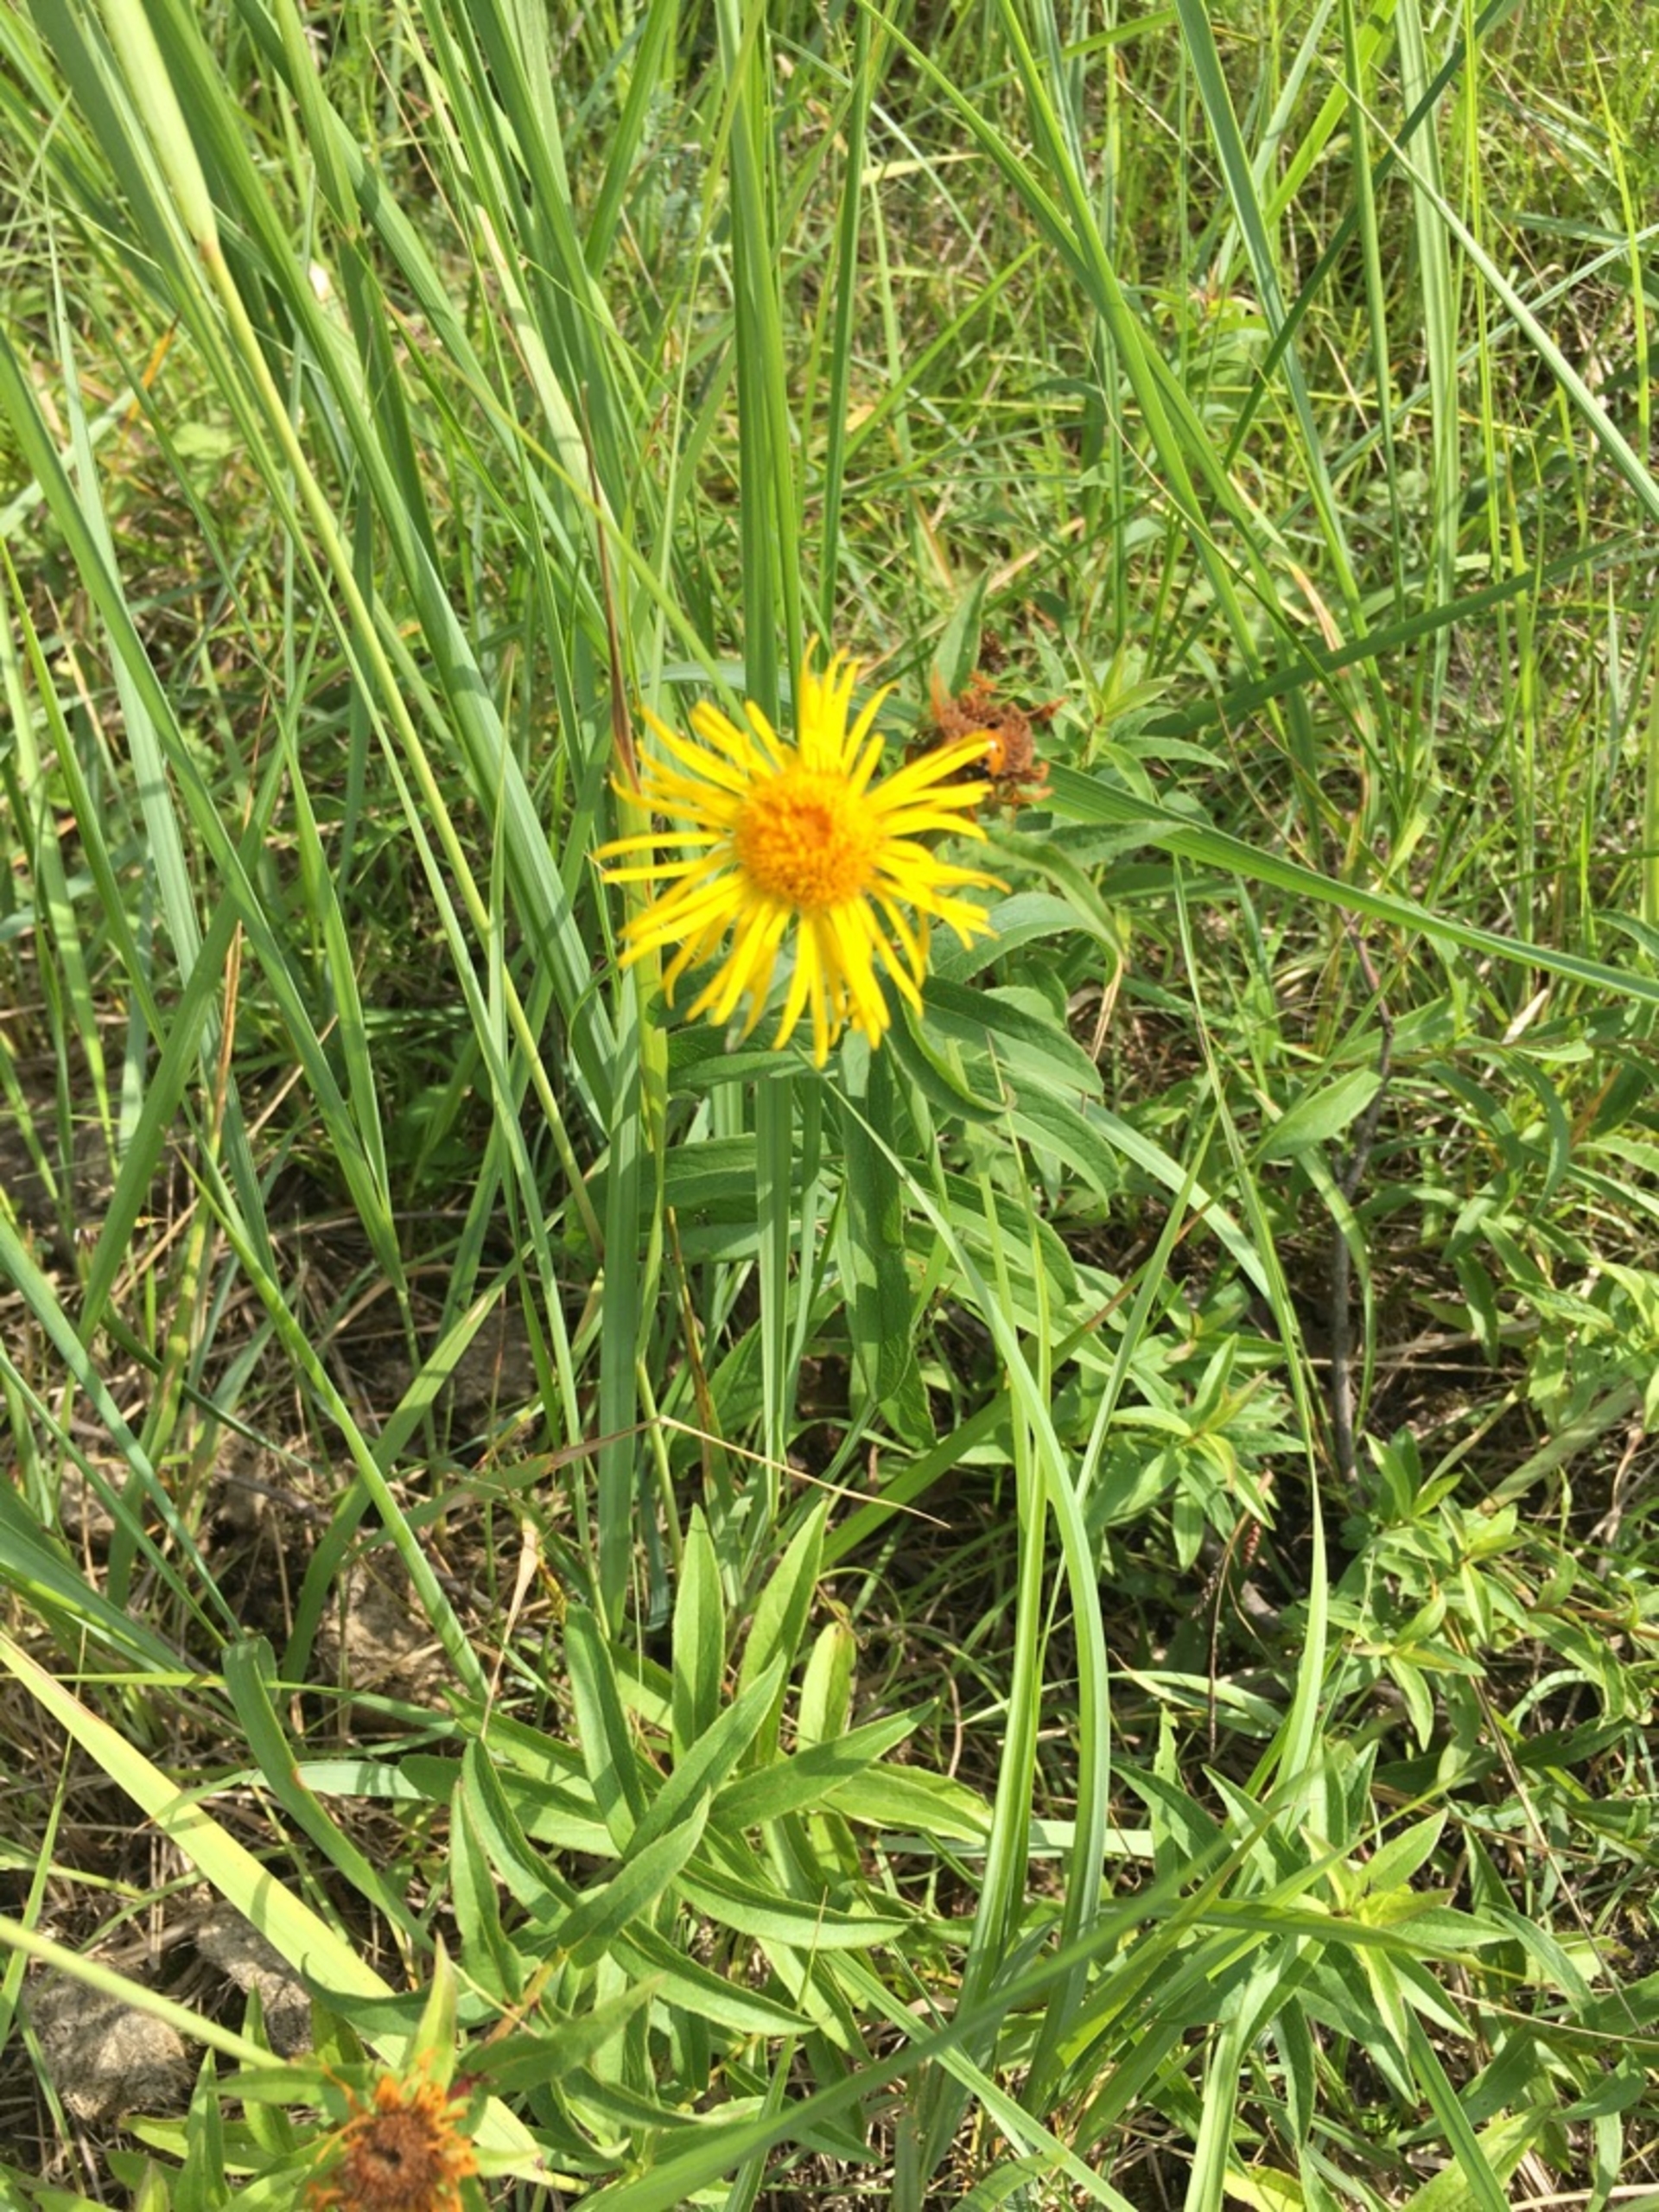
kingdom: Plantae
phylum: Tracheophyta
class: Magnoliopsida
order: Asterales
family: Asteraceae
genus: Pentanema
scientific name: Pentanema salicinum
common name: Pile-alant
